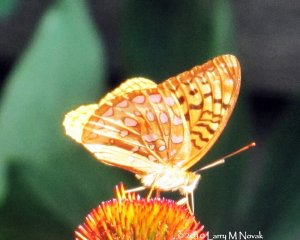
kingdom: Animalia
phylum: Arthropoda
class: Insecta
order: Lepidoptera
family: Nymphalidae
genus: Speyeria
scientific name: Speyeria cybele
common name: Great Spangled Fritillary
